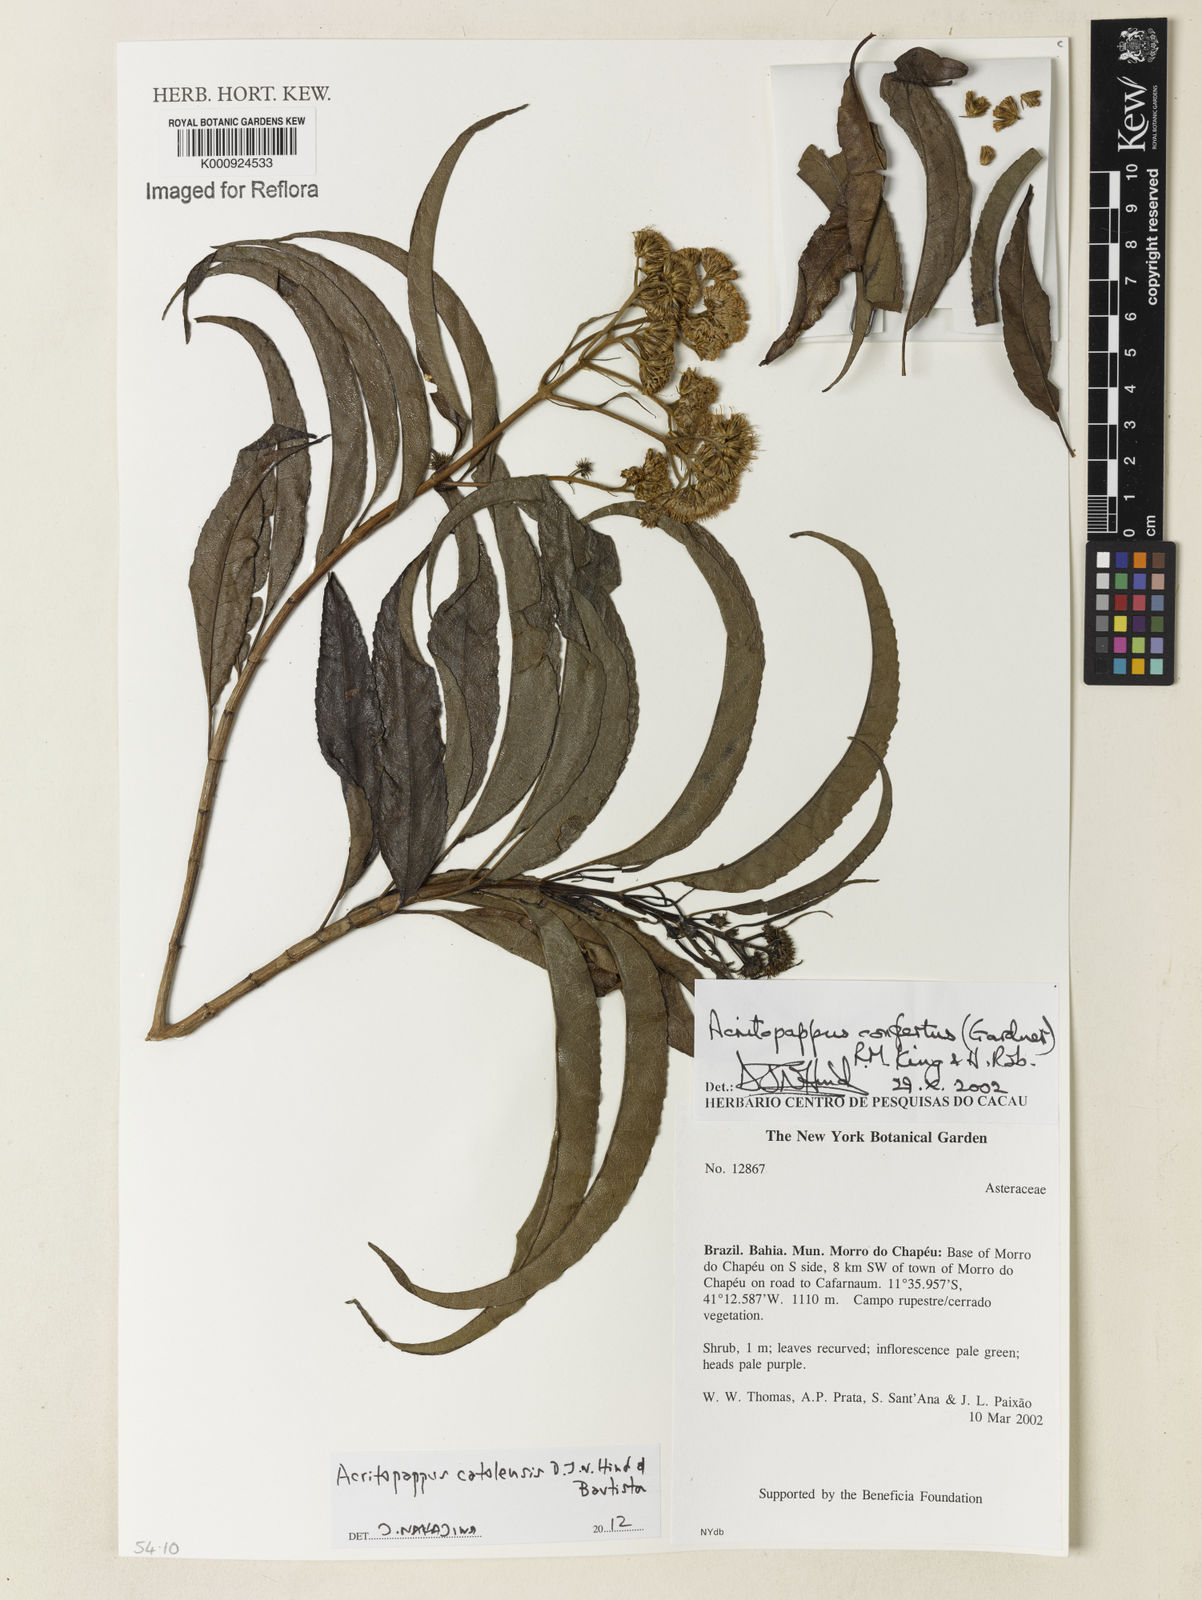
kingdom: Plantae
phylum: Tracheophyta
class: Magnoliopsida
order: Asterales
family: Asteraceae
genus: Acritopappus
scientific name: Acritopappus catolesensis
